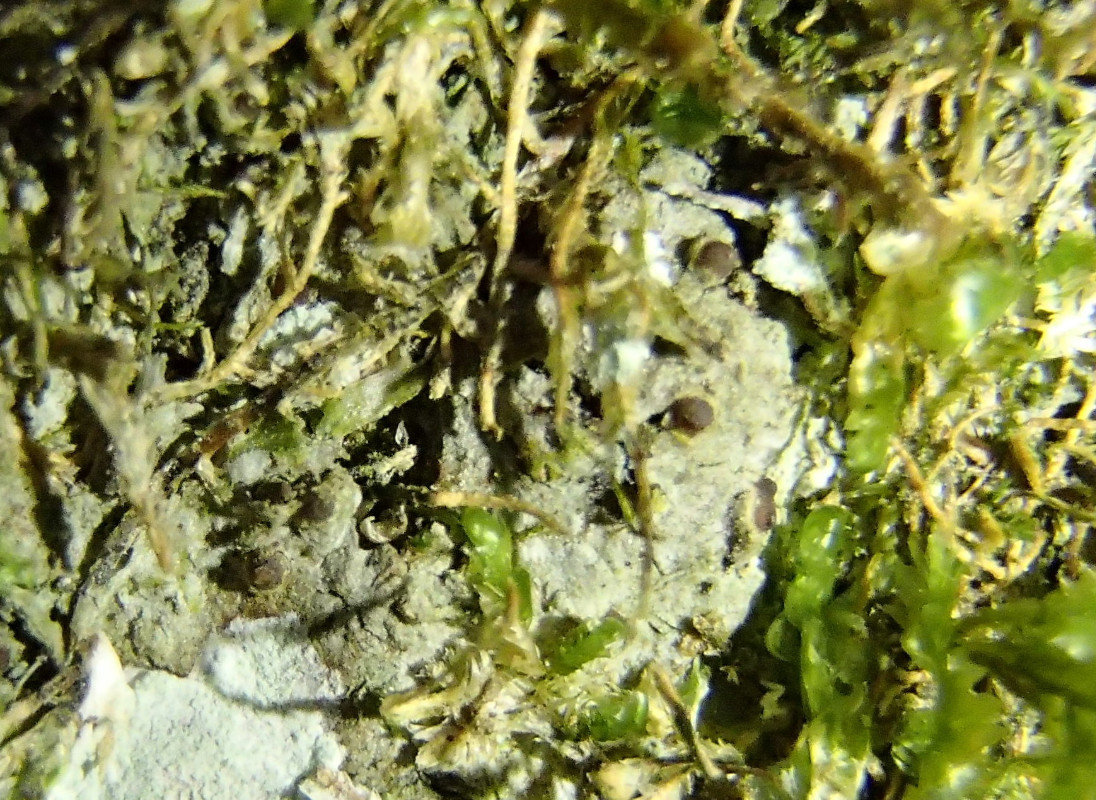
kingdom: Fungi
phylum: Ascomycota
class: Lecanoromycetes
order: Ostropales
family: Stictidaceae
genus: Thelopsis
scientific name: Thelopsis rubella
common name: brun thelopsis
